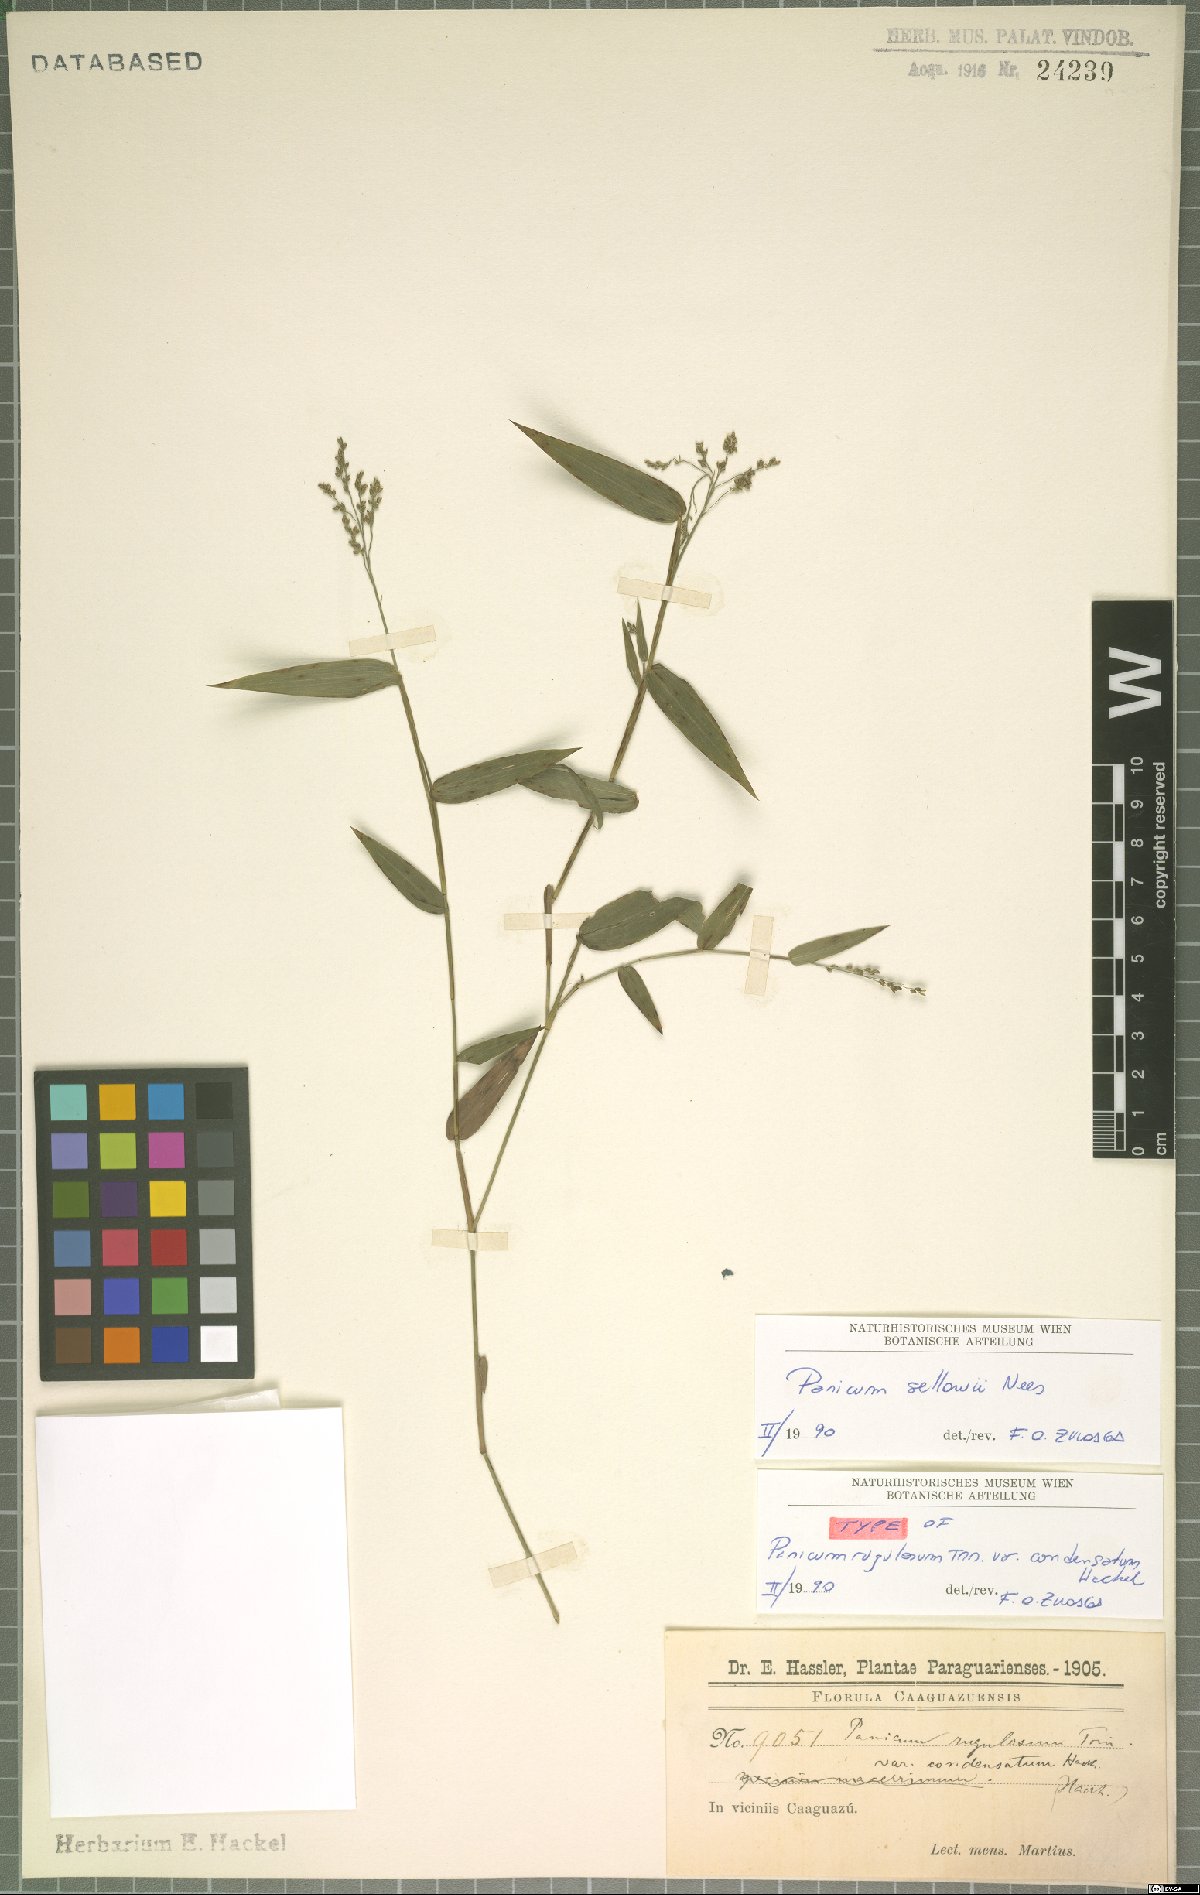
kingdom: Plantae
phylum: Tracheophyta
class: Liliopsida
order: Poales
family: Poaceae
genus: Panicum
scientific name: Panicum sellowii
